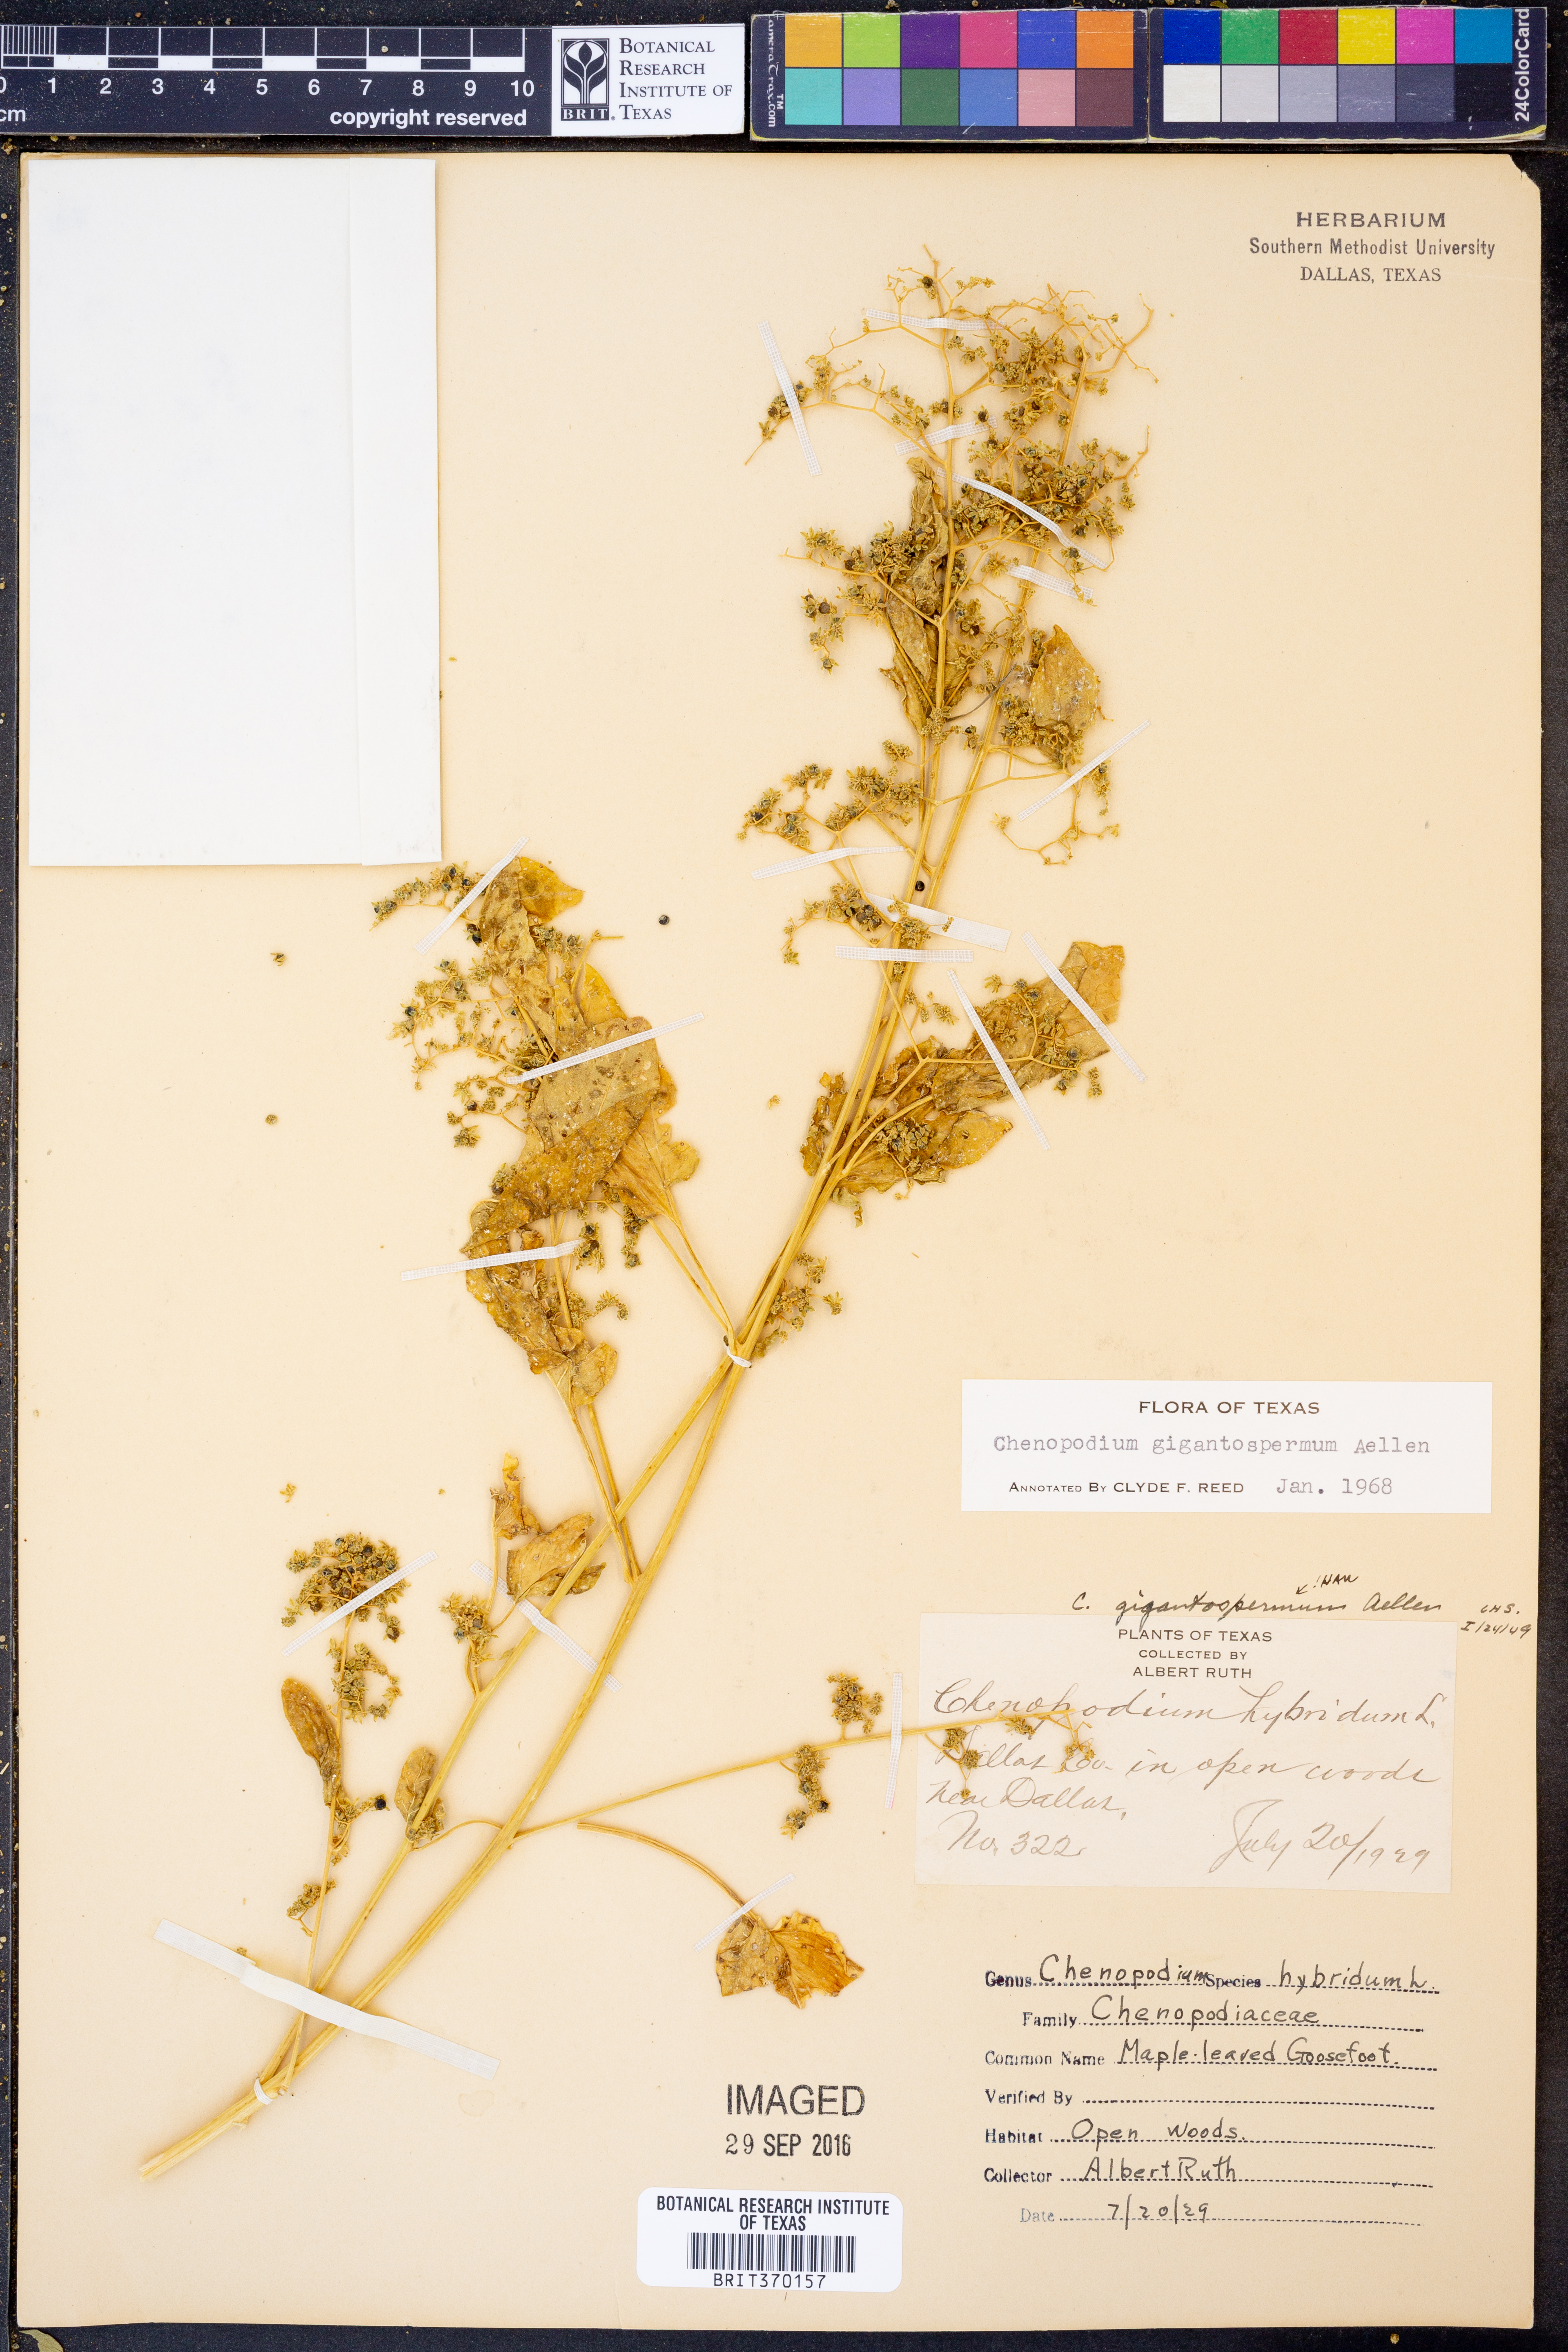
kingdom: Plantae
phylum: Tracheophyta
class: Magnoliopsida
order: Caryophyllales
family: Amaranthaceae
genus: Chenopodiastrum
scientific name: Chenopodiastrum simplex
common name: Large-seed goosefoot
